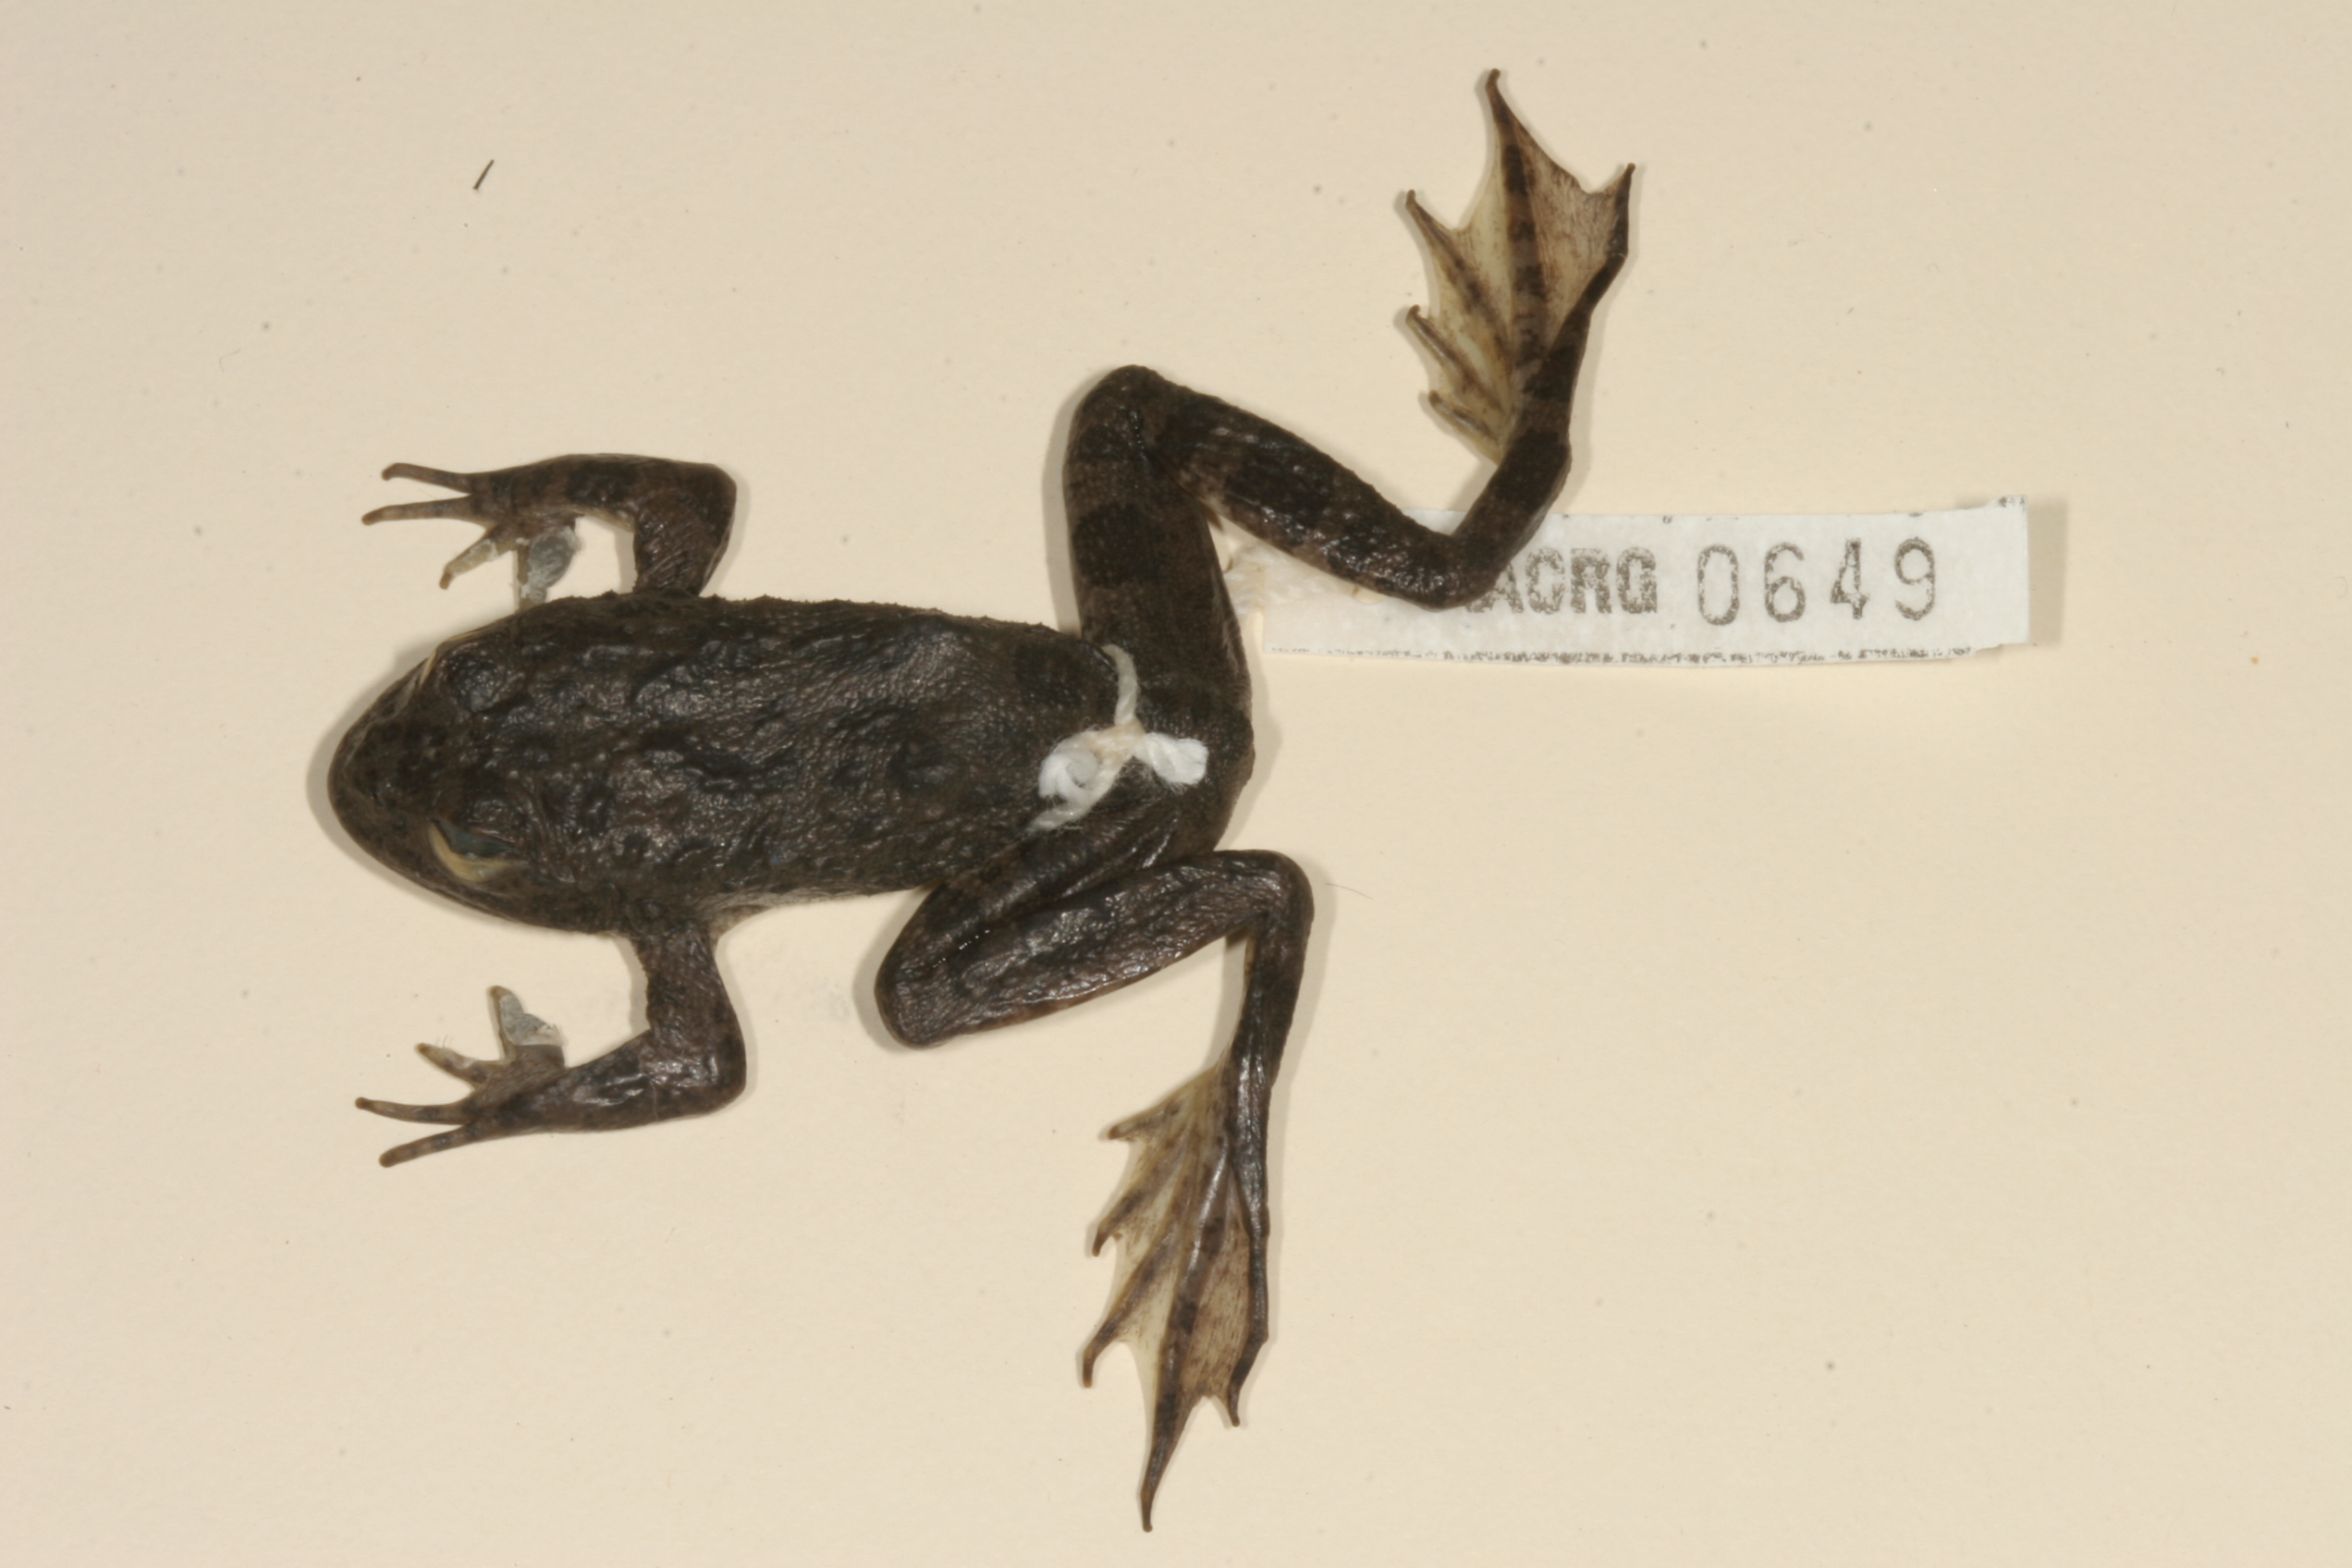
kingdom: Animalia
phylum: Chordata
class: Amphibia
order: Anura
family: Pyxicephalidae
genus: Amietia
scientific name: Amietia vertebralis
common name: Drakensberg stream frog
